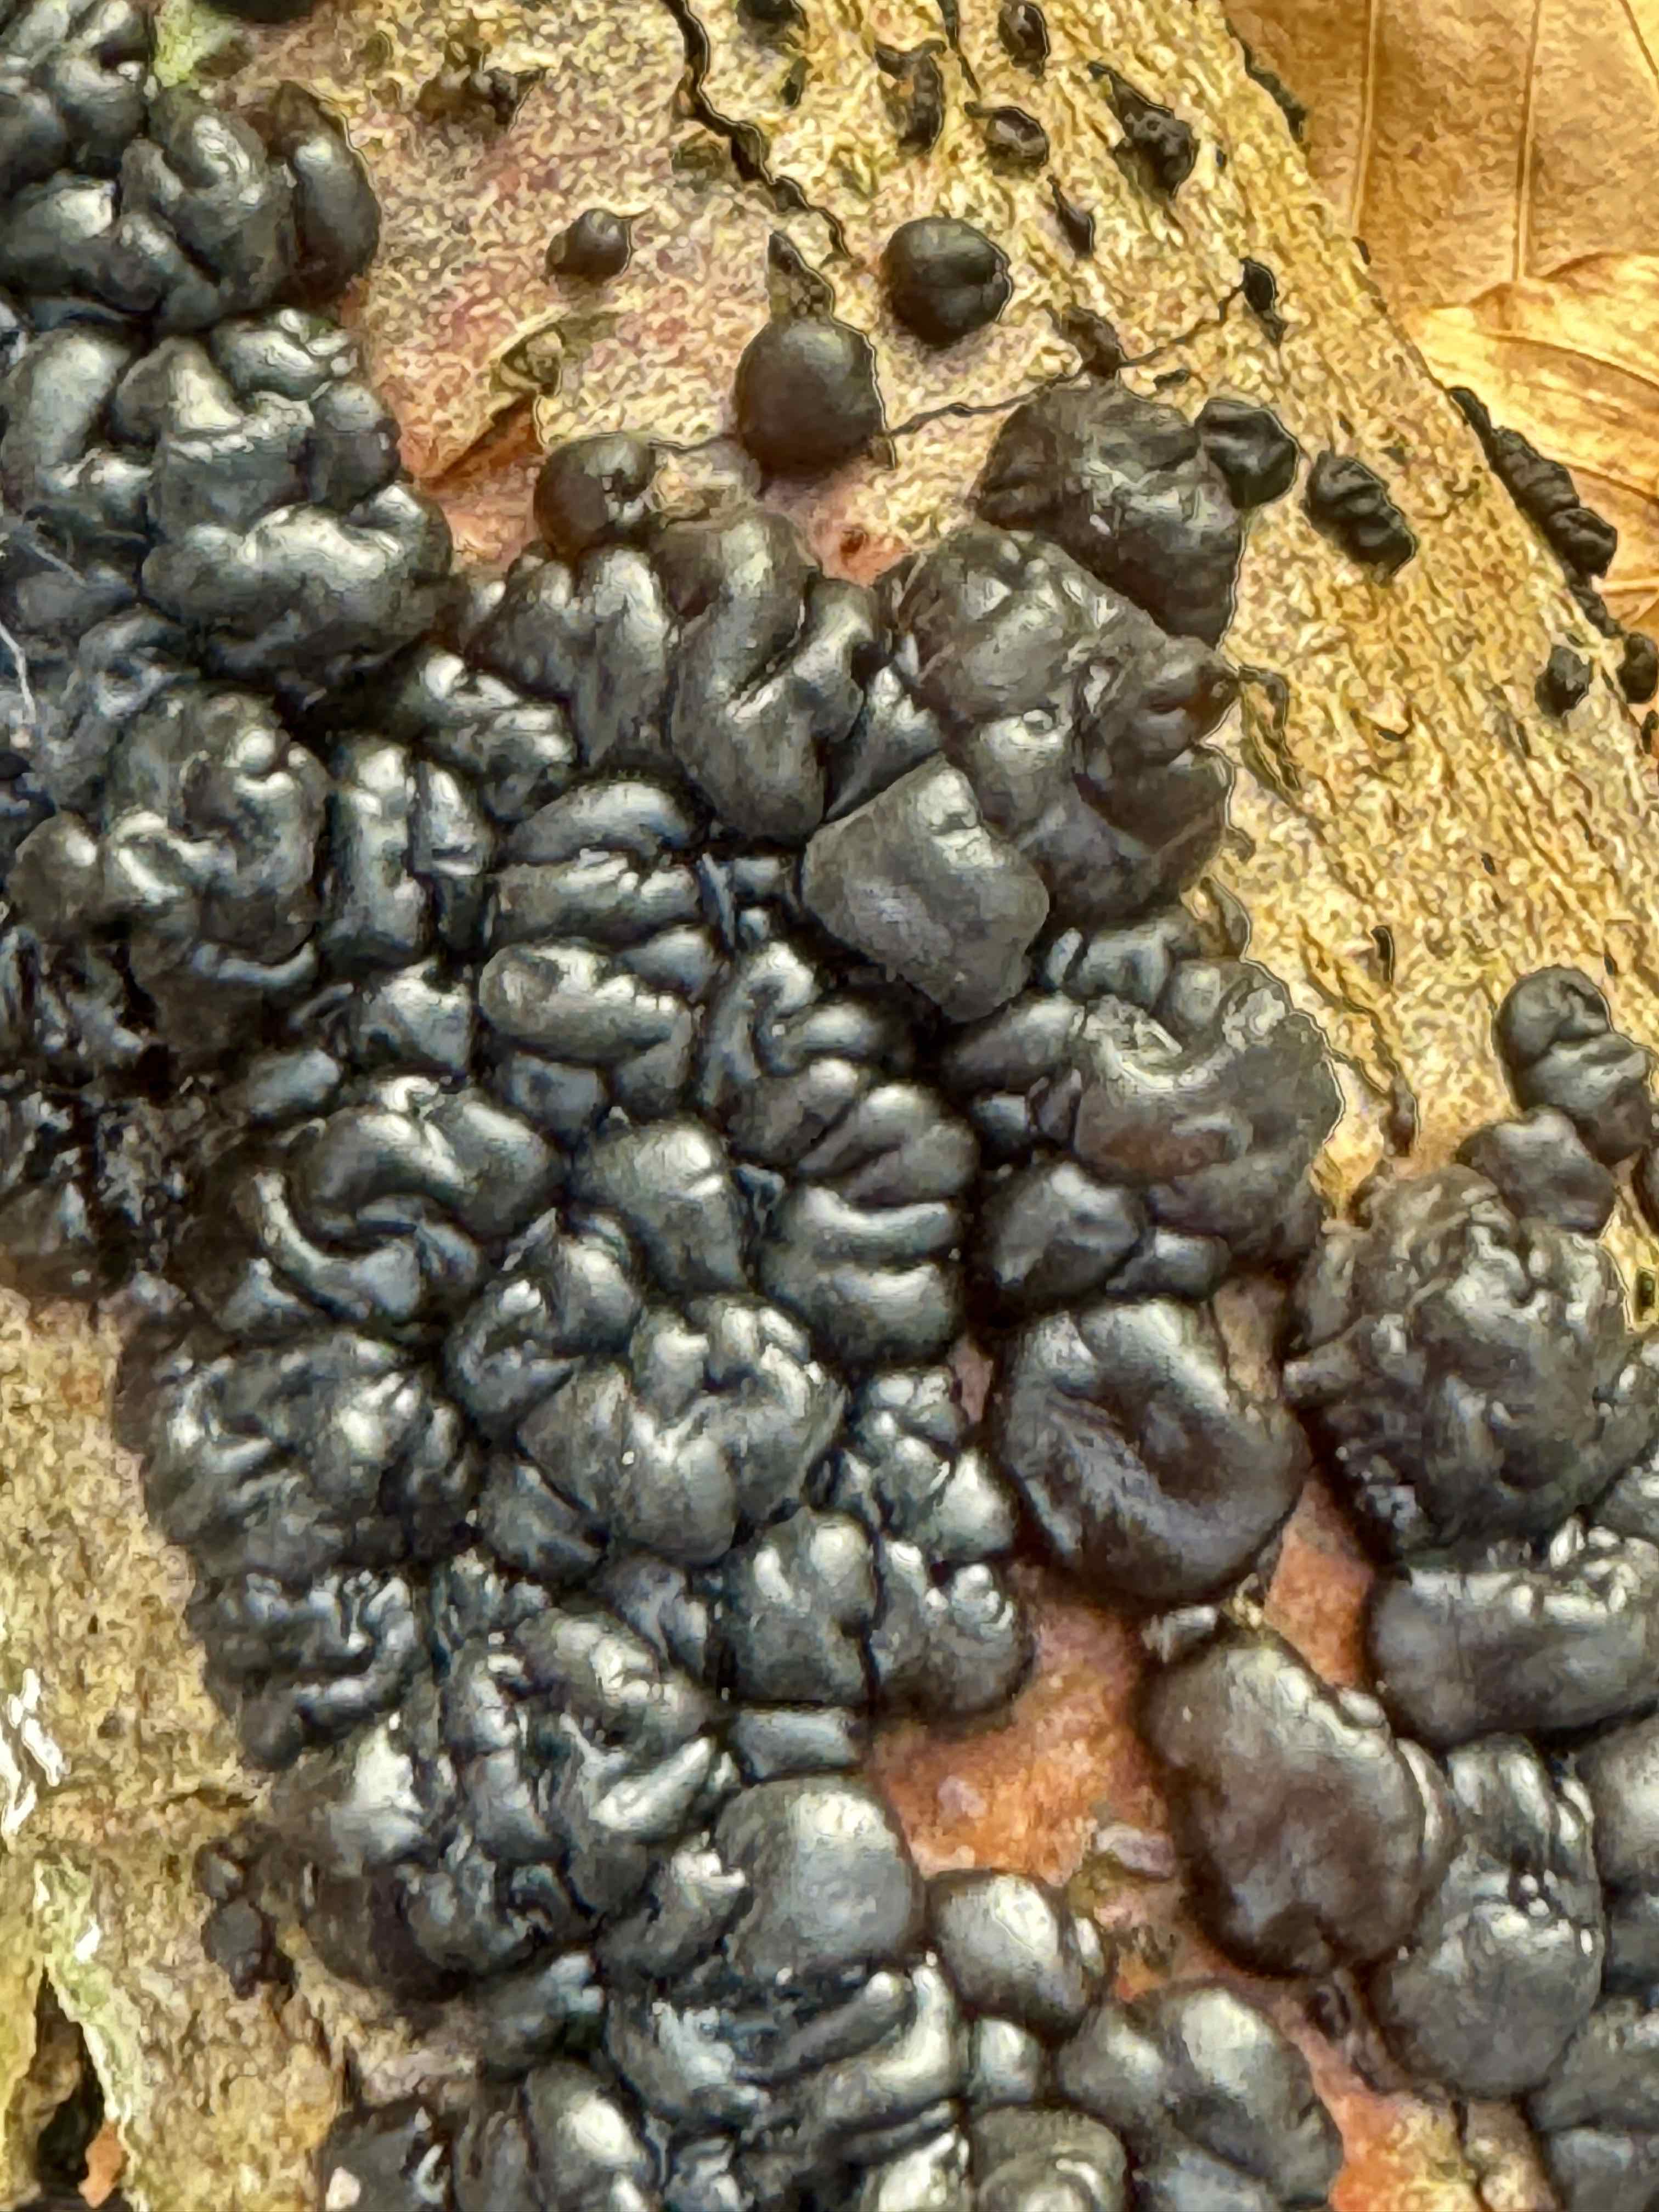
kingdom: Fungi
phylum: Basidiomycota
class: Agaricomycetes
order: Auriculariales
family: Auriculariaceae
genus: Exidia
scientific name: Exidia nigricans
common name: almindelig bævretop
